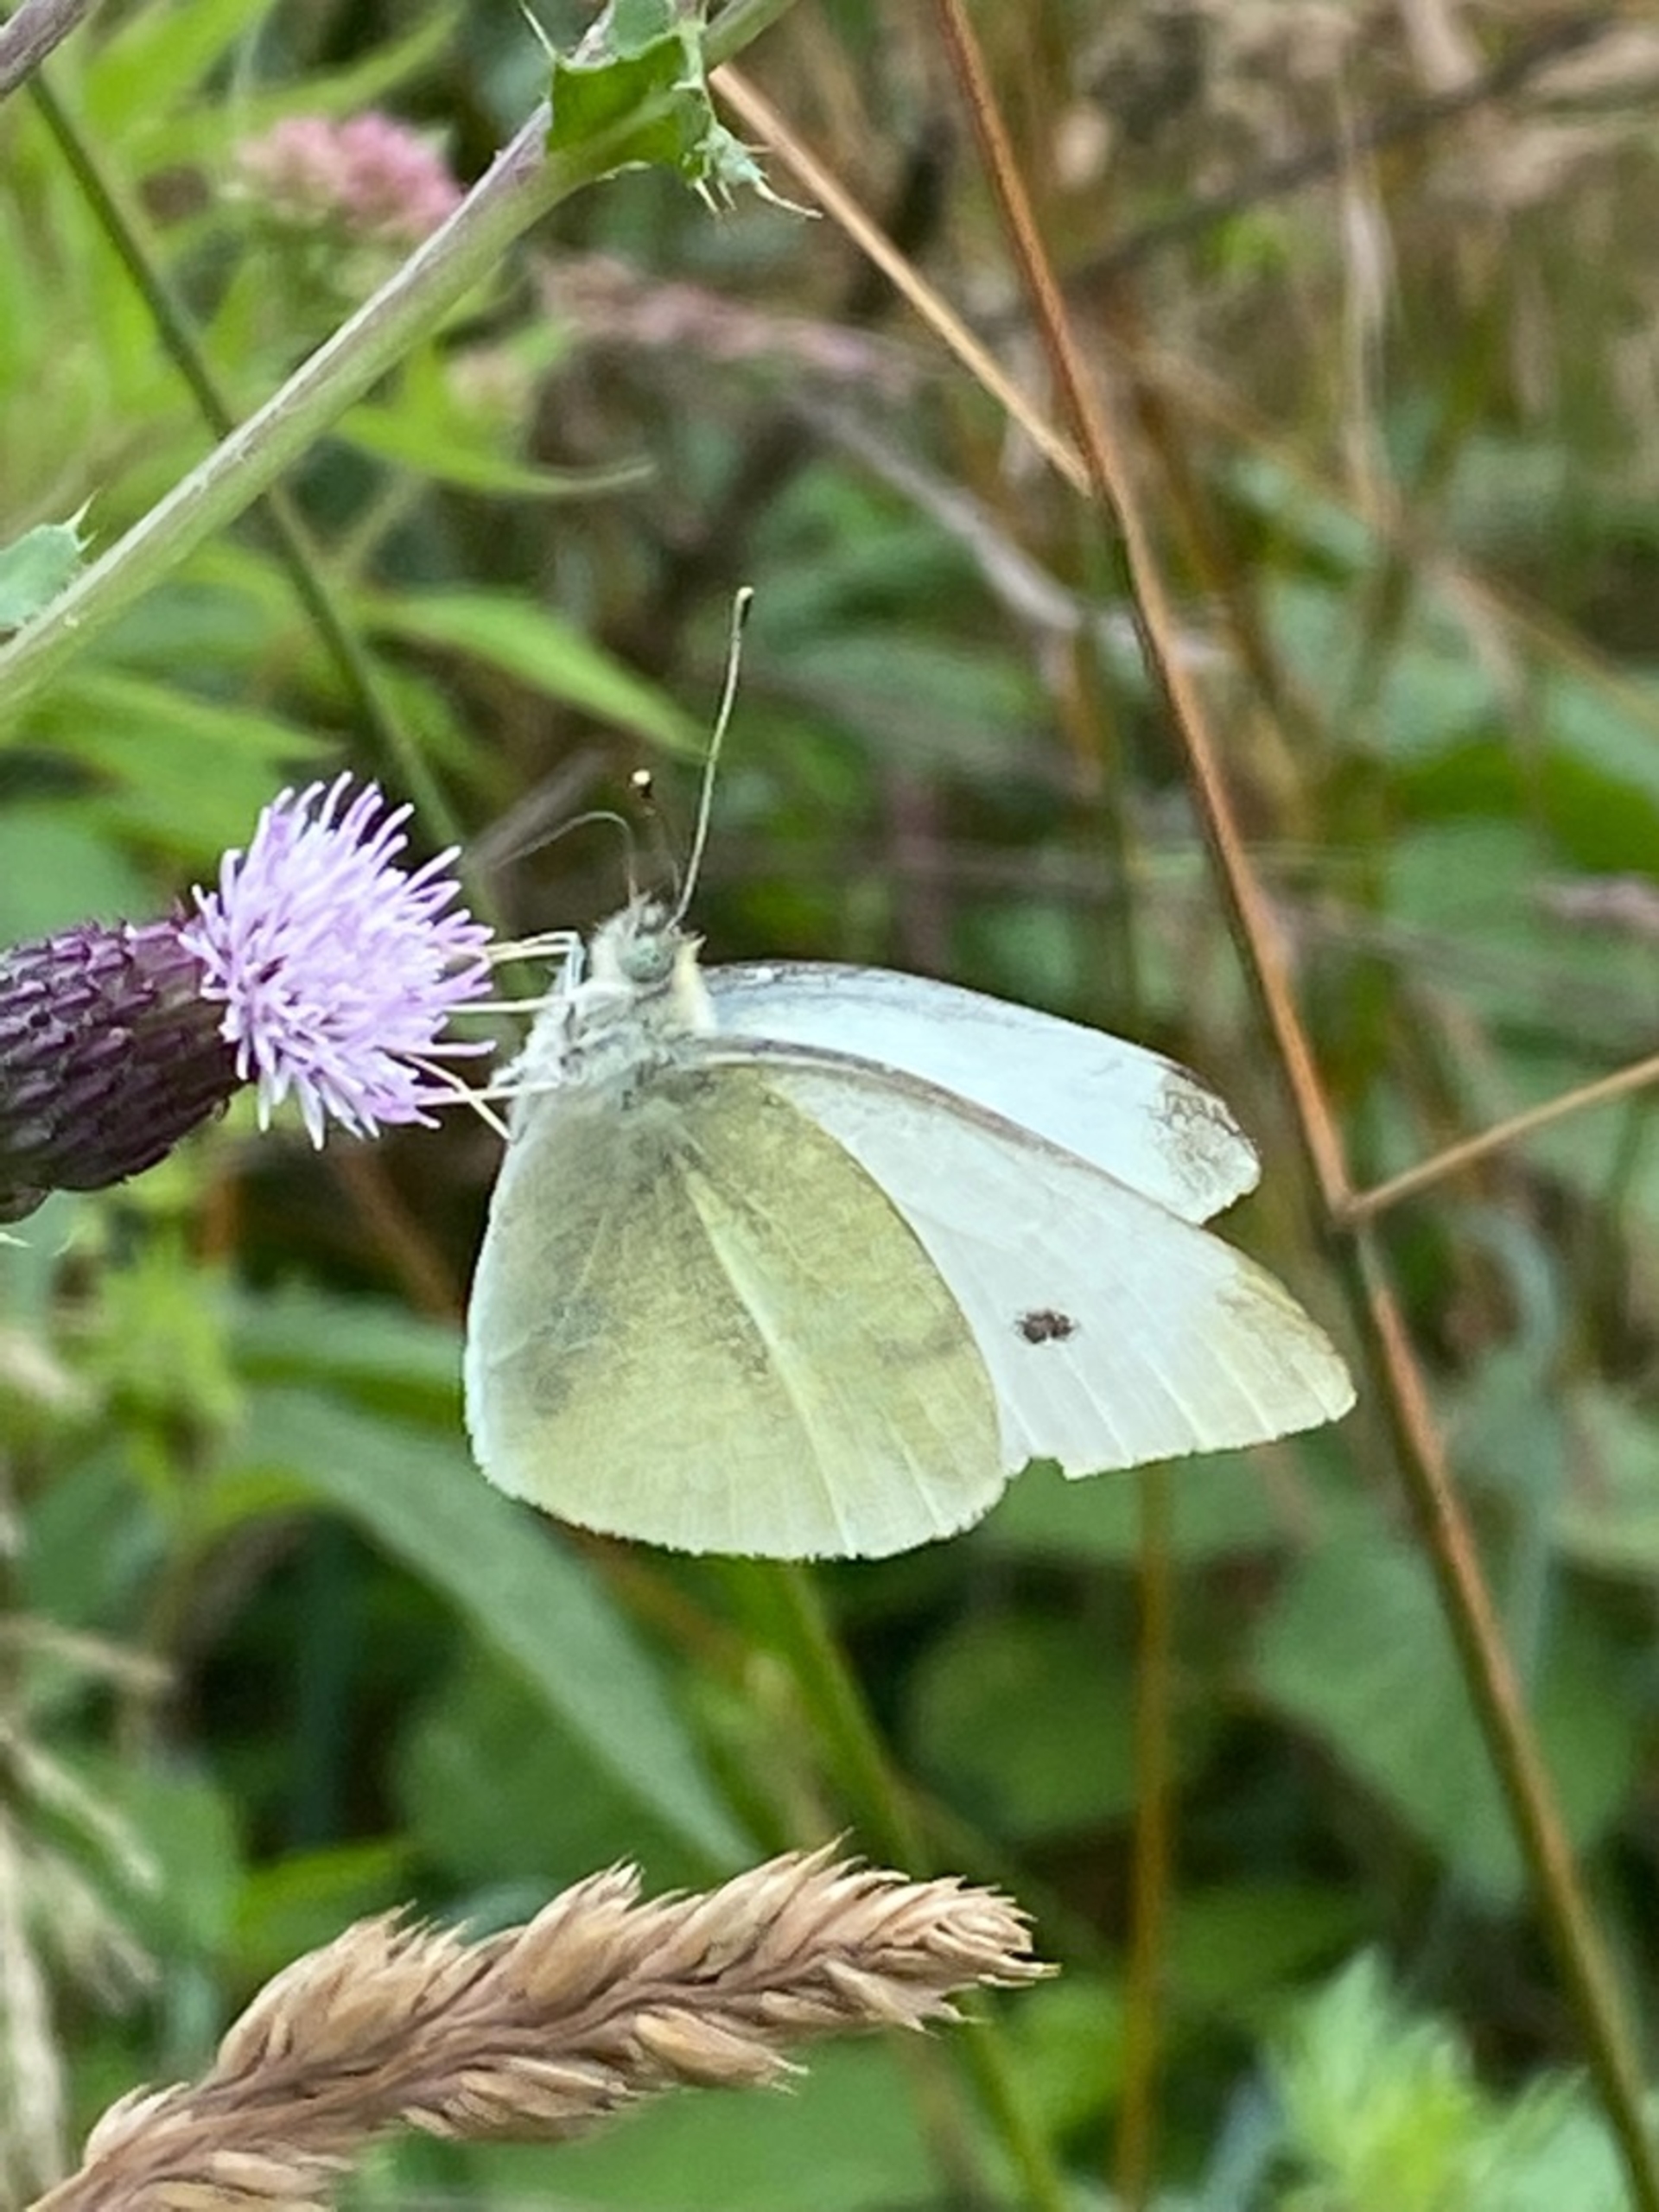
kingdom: Animalia
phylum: Arthropoda
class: Insecta
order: Lepidoptera
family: Pieridae
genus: Pieris
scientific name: Pieris rapae
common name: Lille kålsommerfugl
